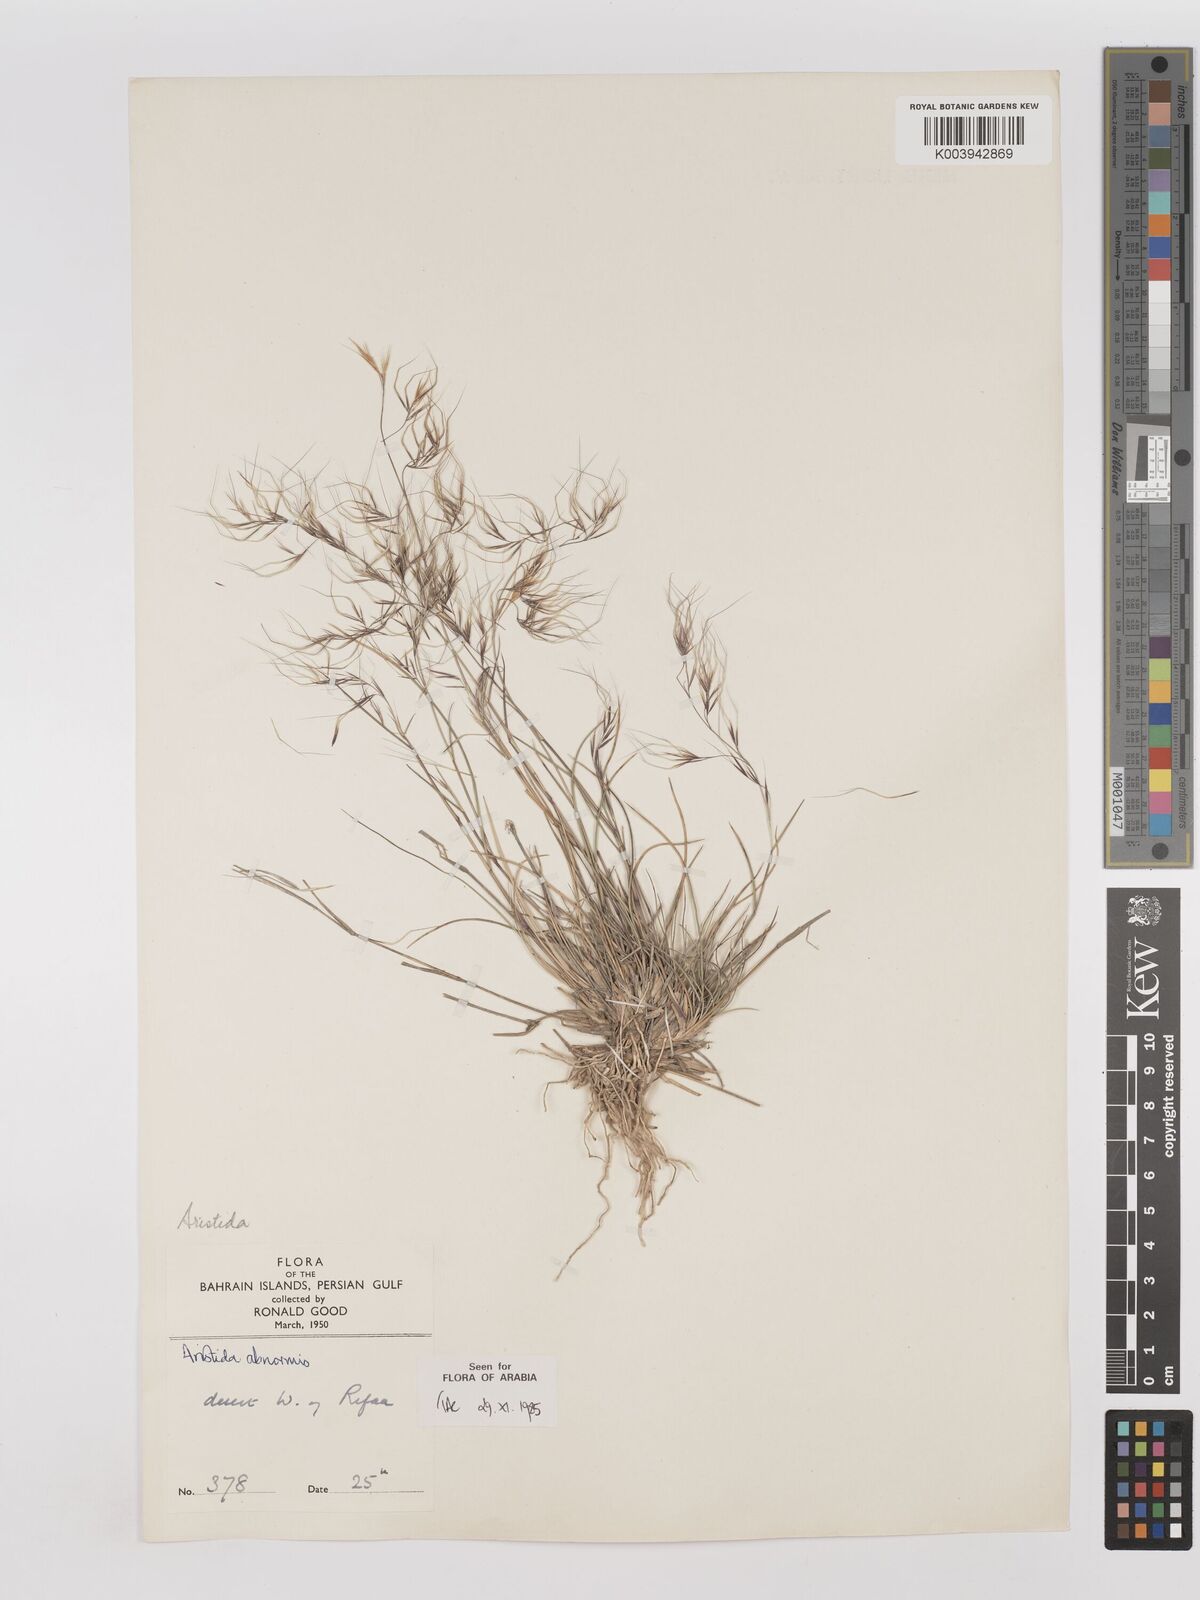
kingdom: Plantae
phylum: Tracheophyta
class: Liliopsida
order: Poales
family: Poaceae
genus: Aristida
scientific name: Aristida abnormis
